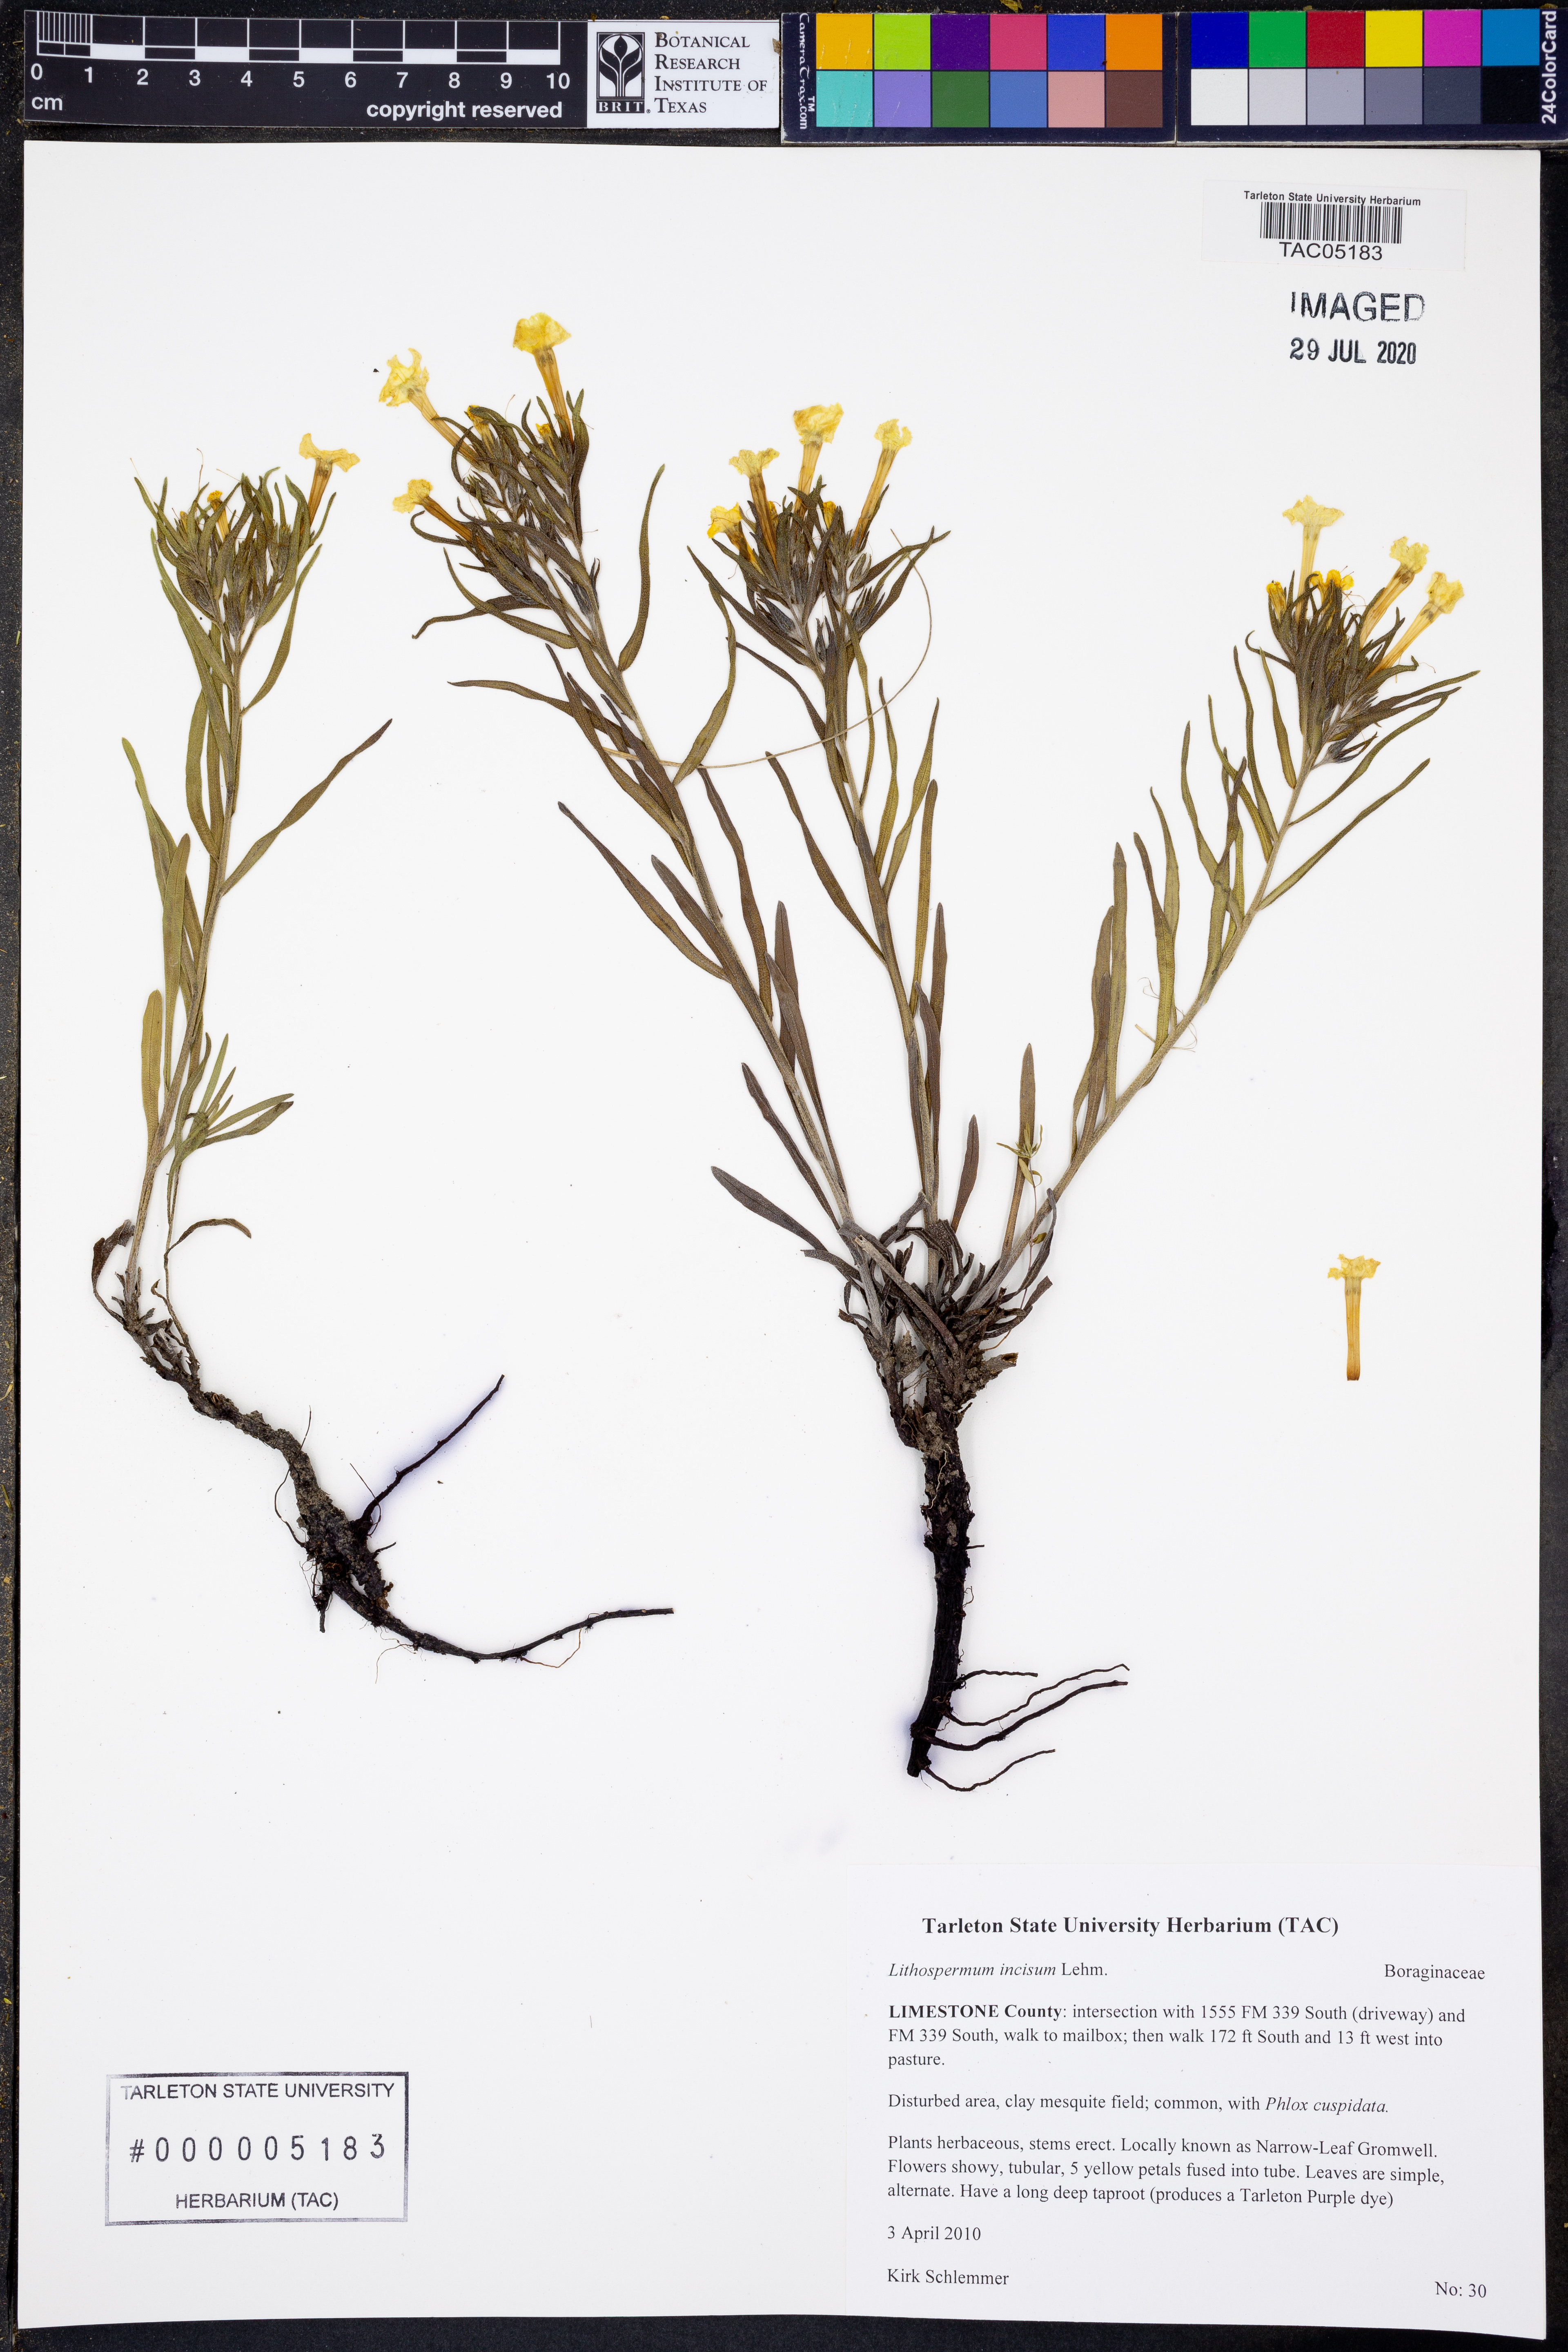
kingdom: Plantae
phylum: Tracheophyta
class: Magnoliopsida
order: Boraginales
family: Boraginaceae
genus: Lithospermum
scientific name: Lithospermum incisum
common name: Fringed gromwell
